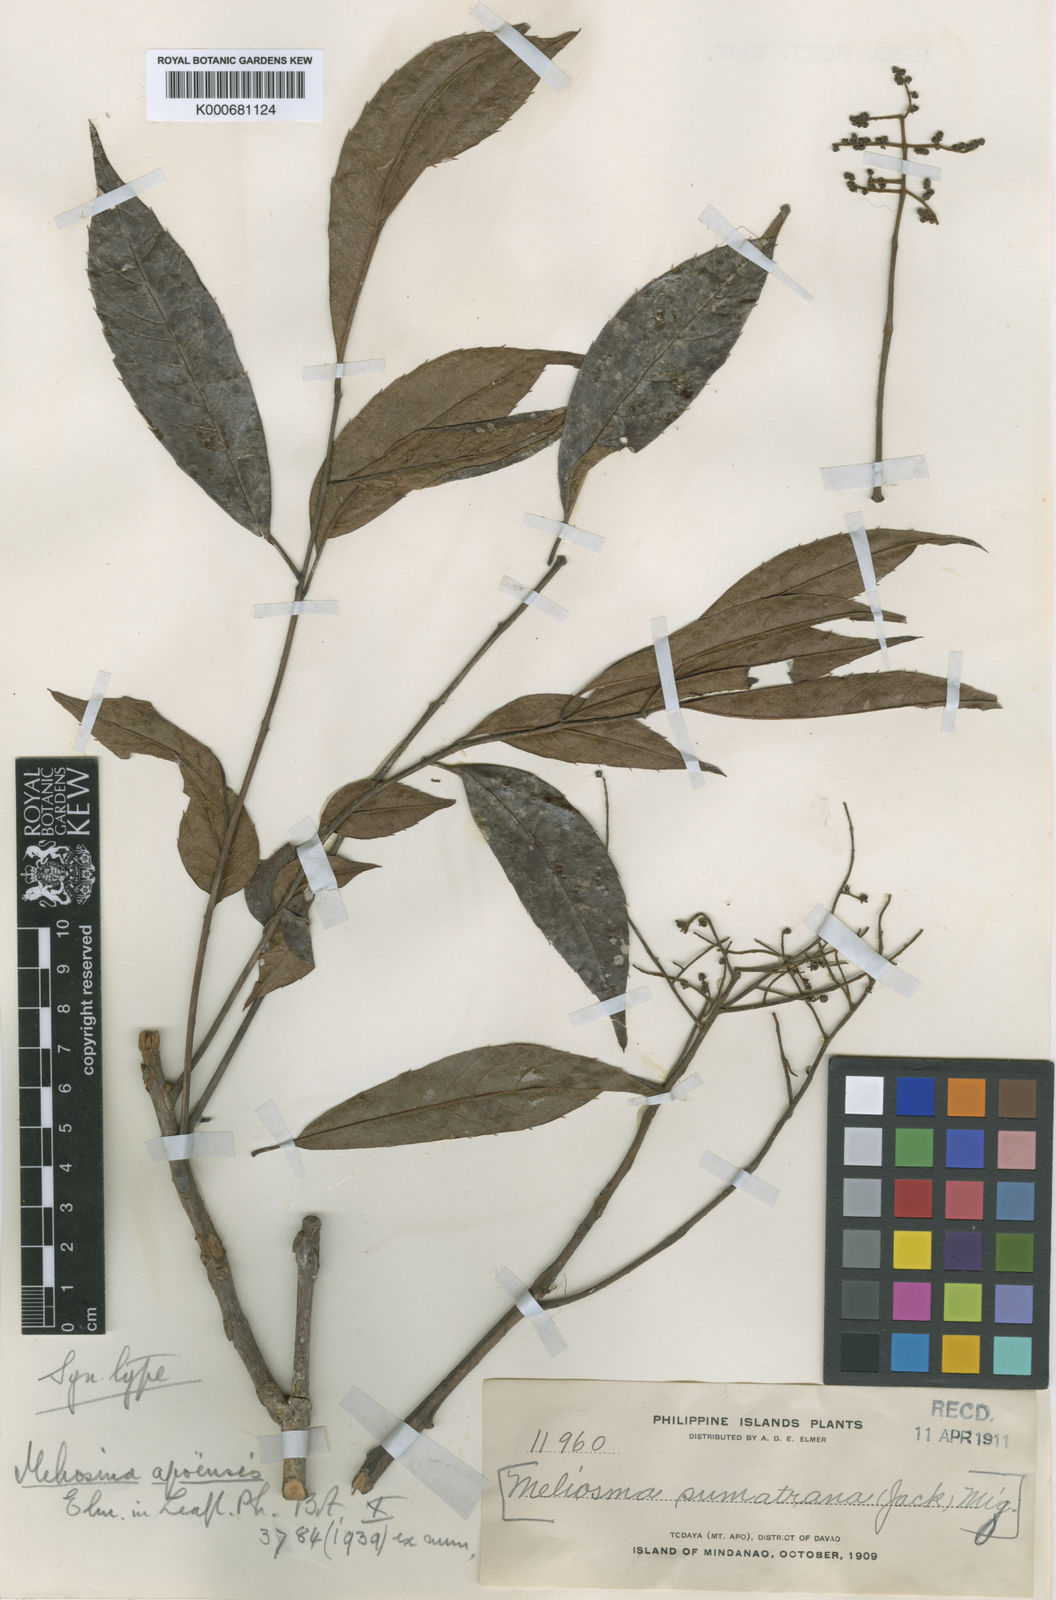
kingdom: Plantae
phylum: Tracheophyta
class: Magnoliopsida
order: Proteales
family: Sabiaceae
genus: Meliosma
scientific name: Meliosma pinnata
